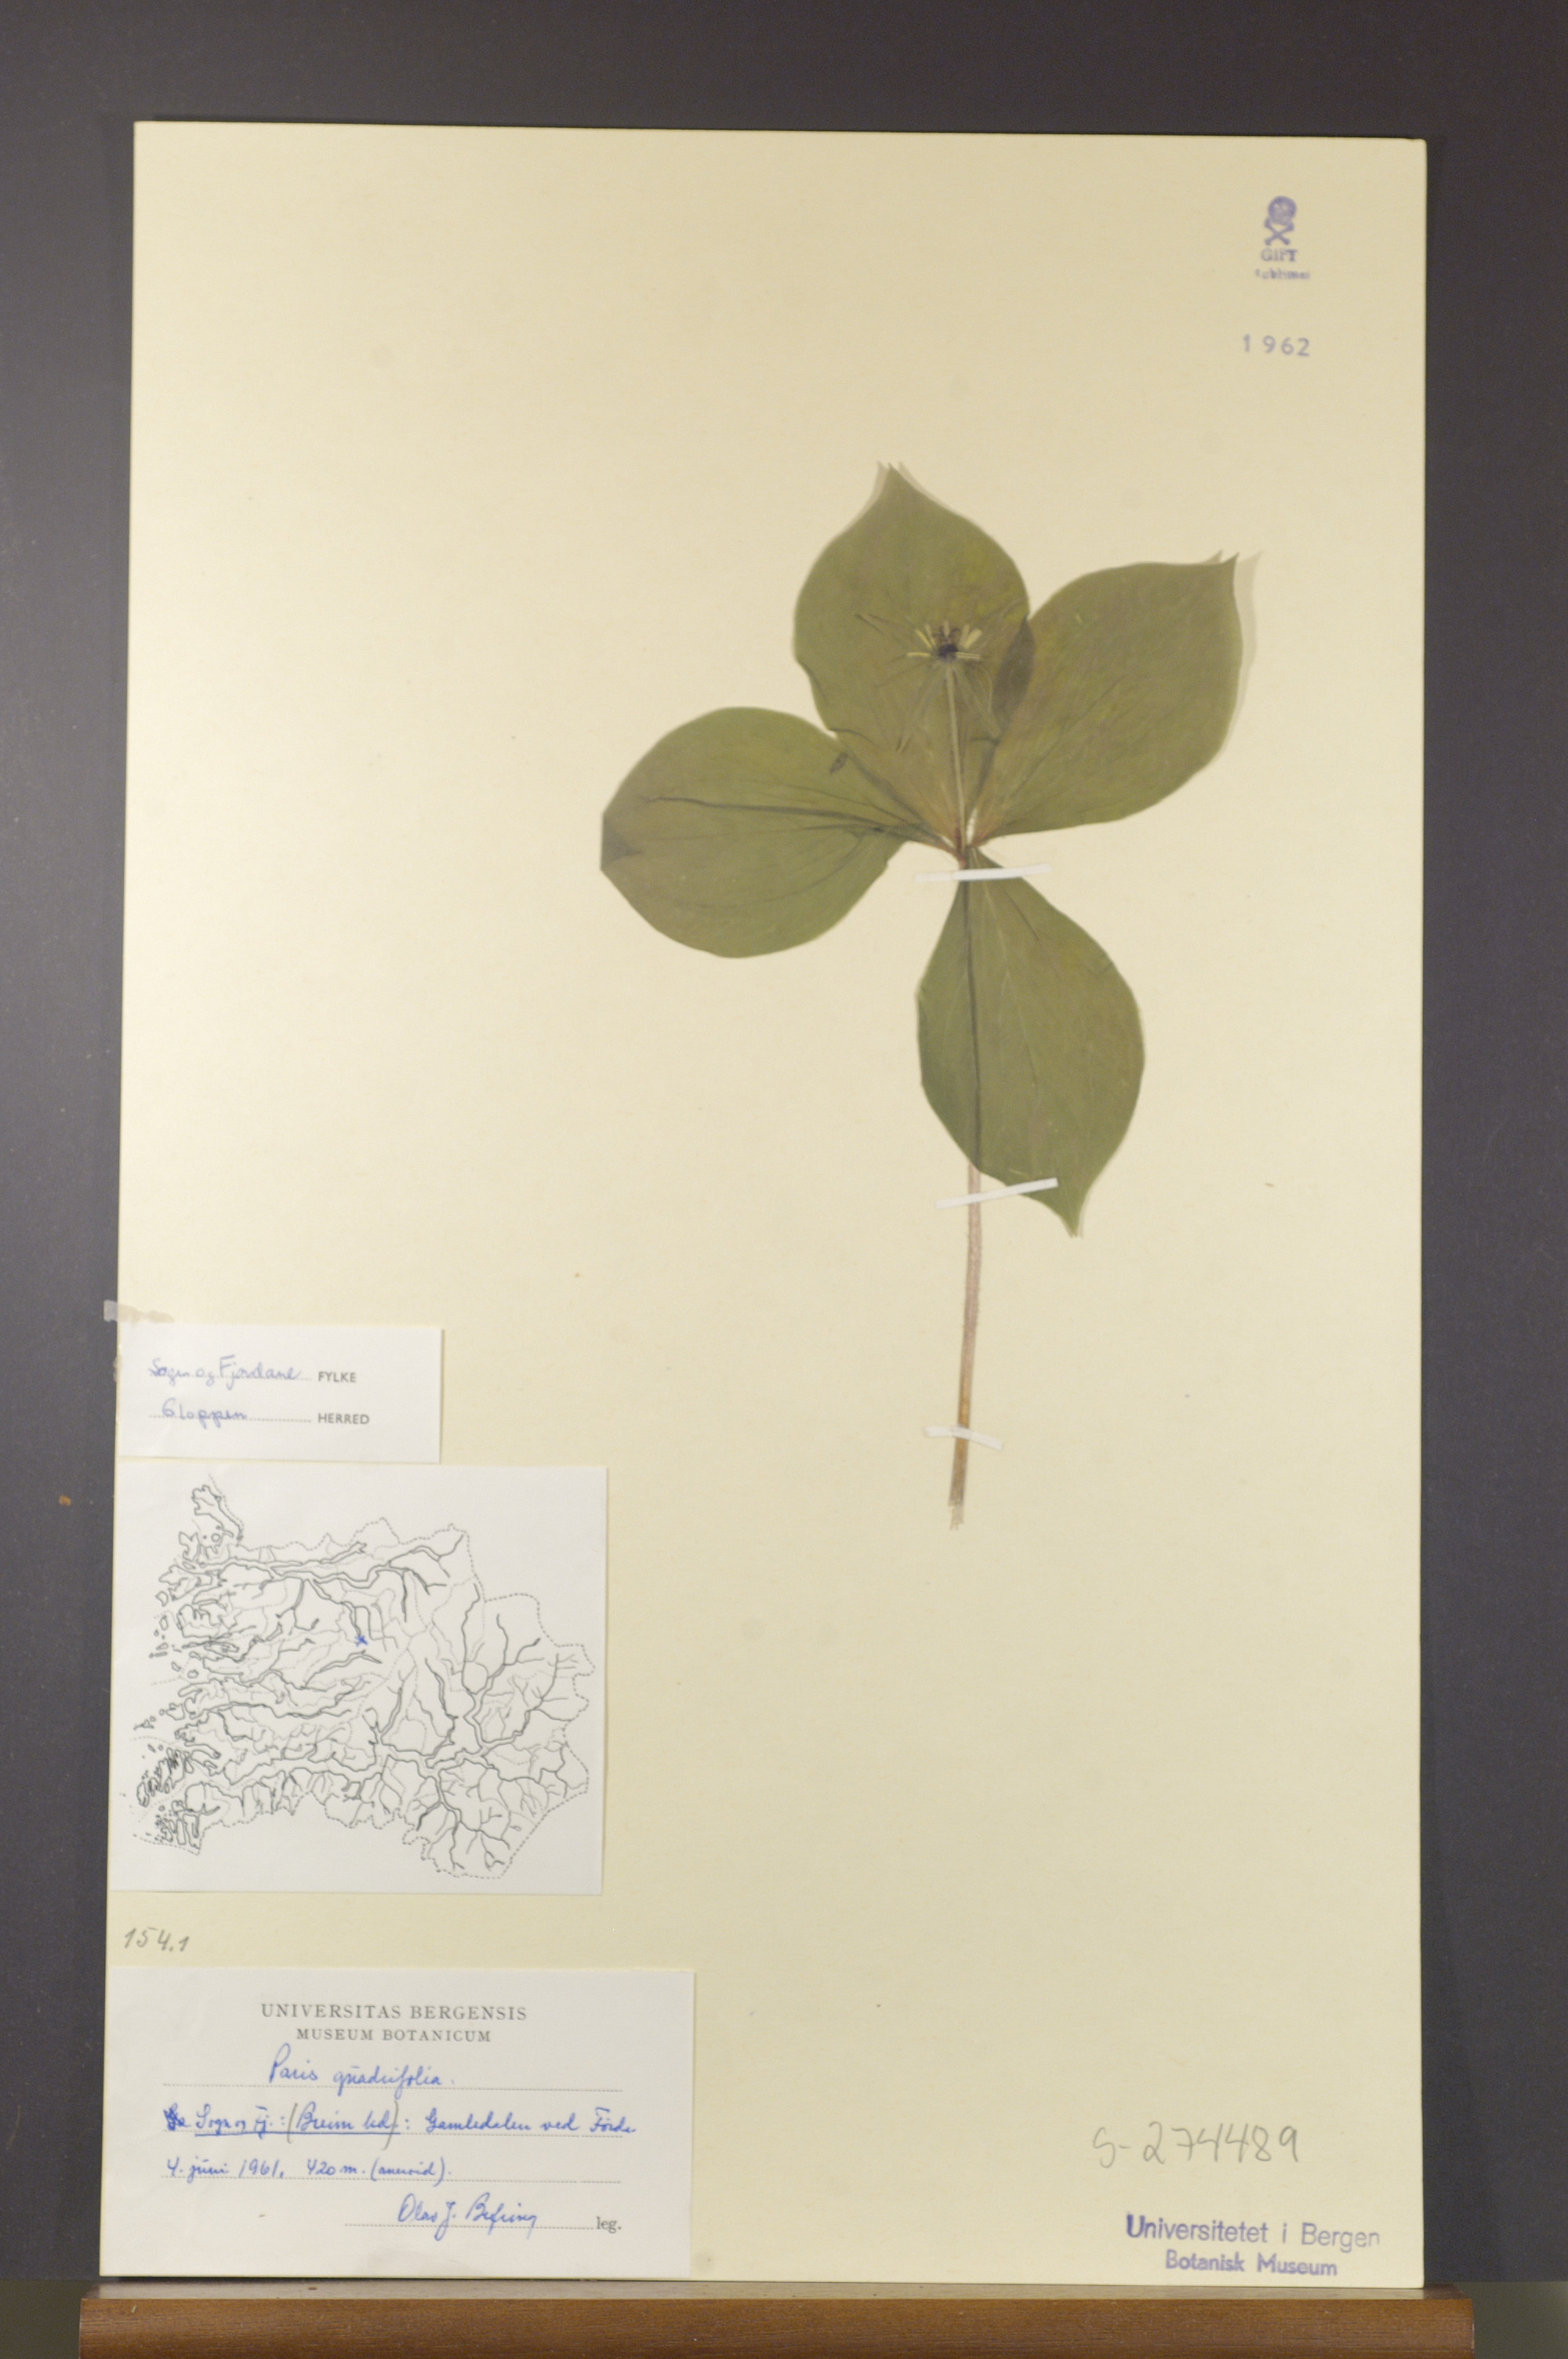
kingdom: Plantae
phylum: Tracheophyta
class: Liliopsida
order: Liliales
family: Melanthiaceae
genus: Paris
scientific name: Paris quadrifolia
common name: Herb-paris
